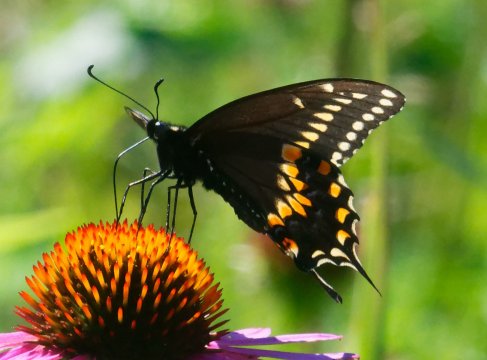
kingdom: Animalia
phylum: Arthropoda
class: Insecta
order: Lepidoptera
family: Papilionidae
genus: Papilio
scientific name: Papilio polyxenes
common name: Black Swallowtail
